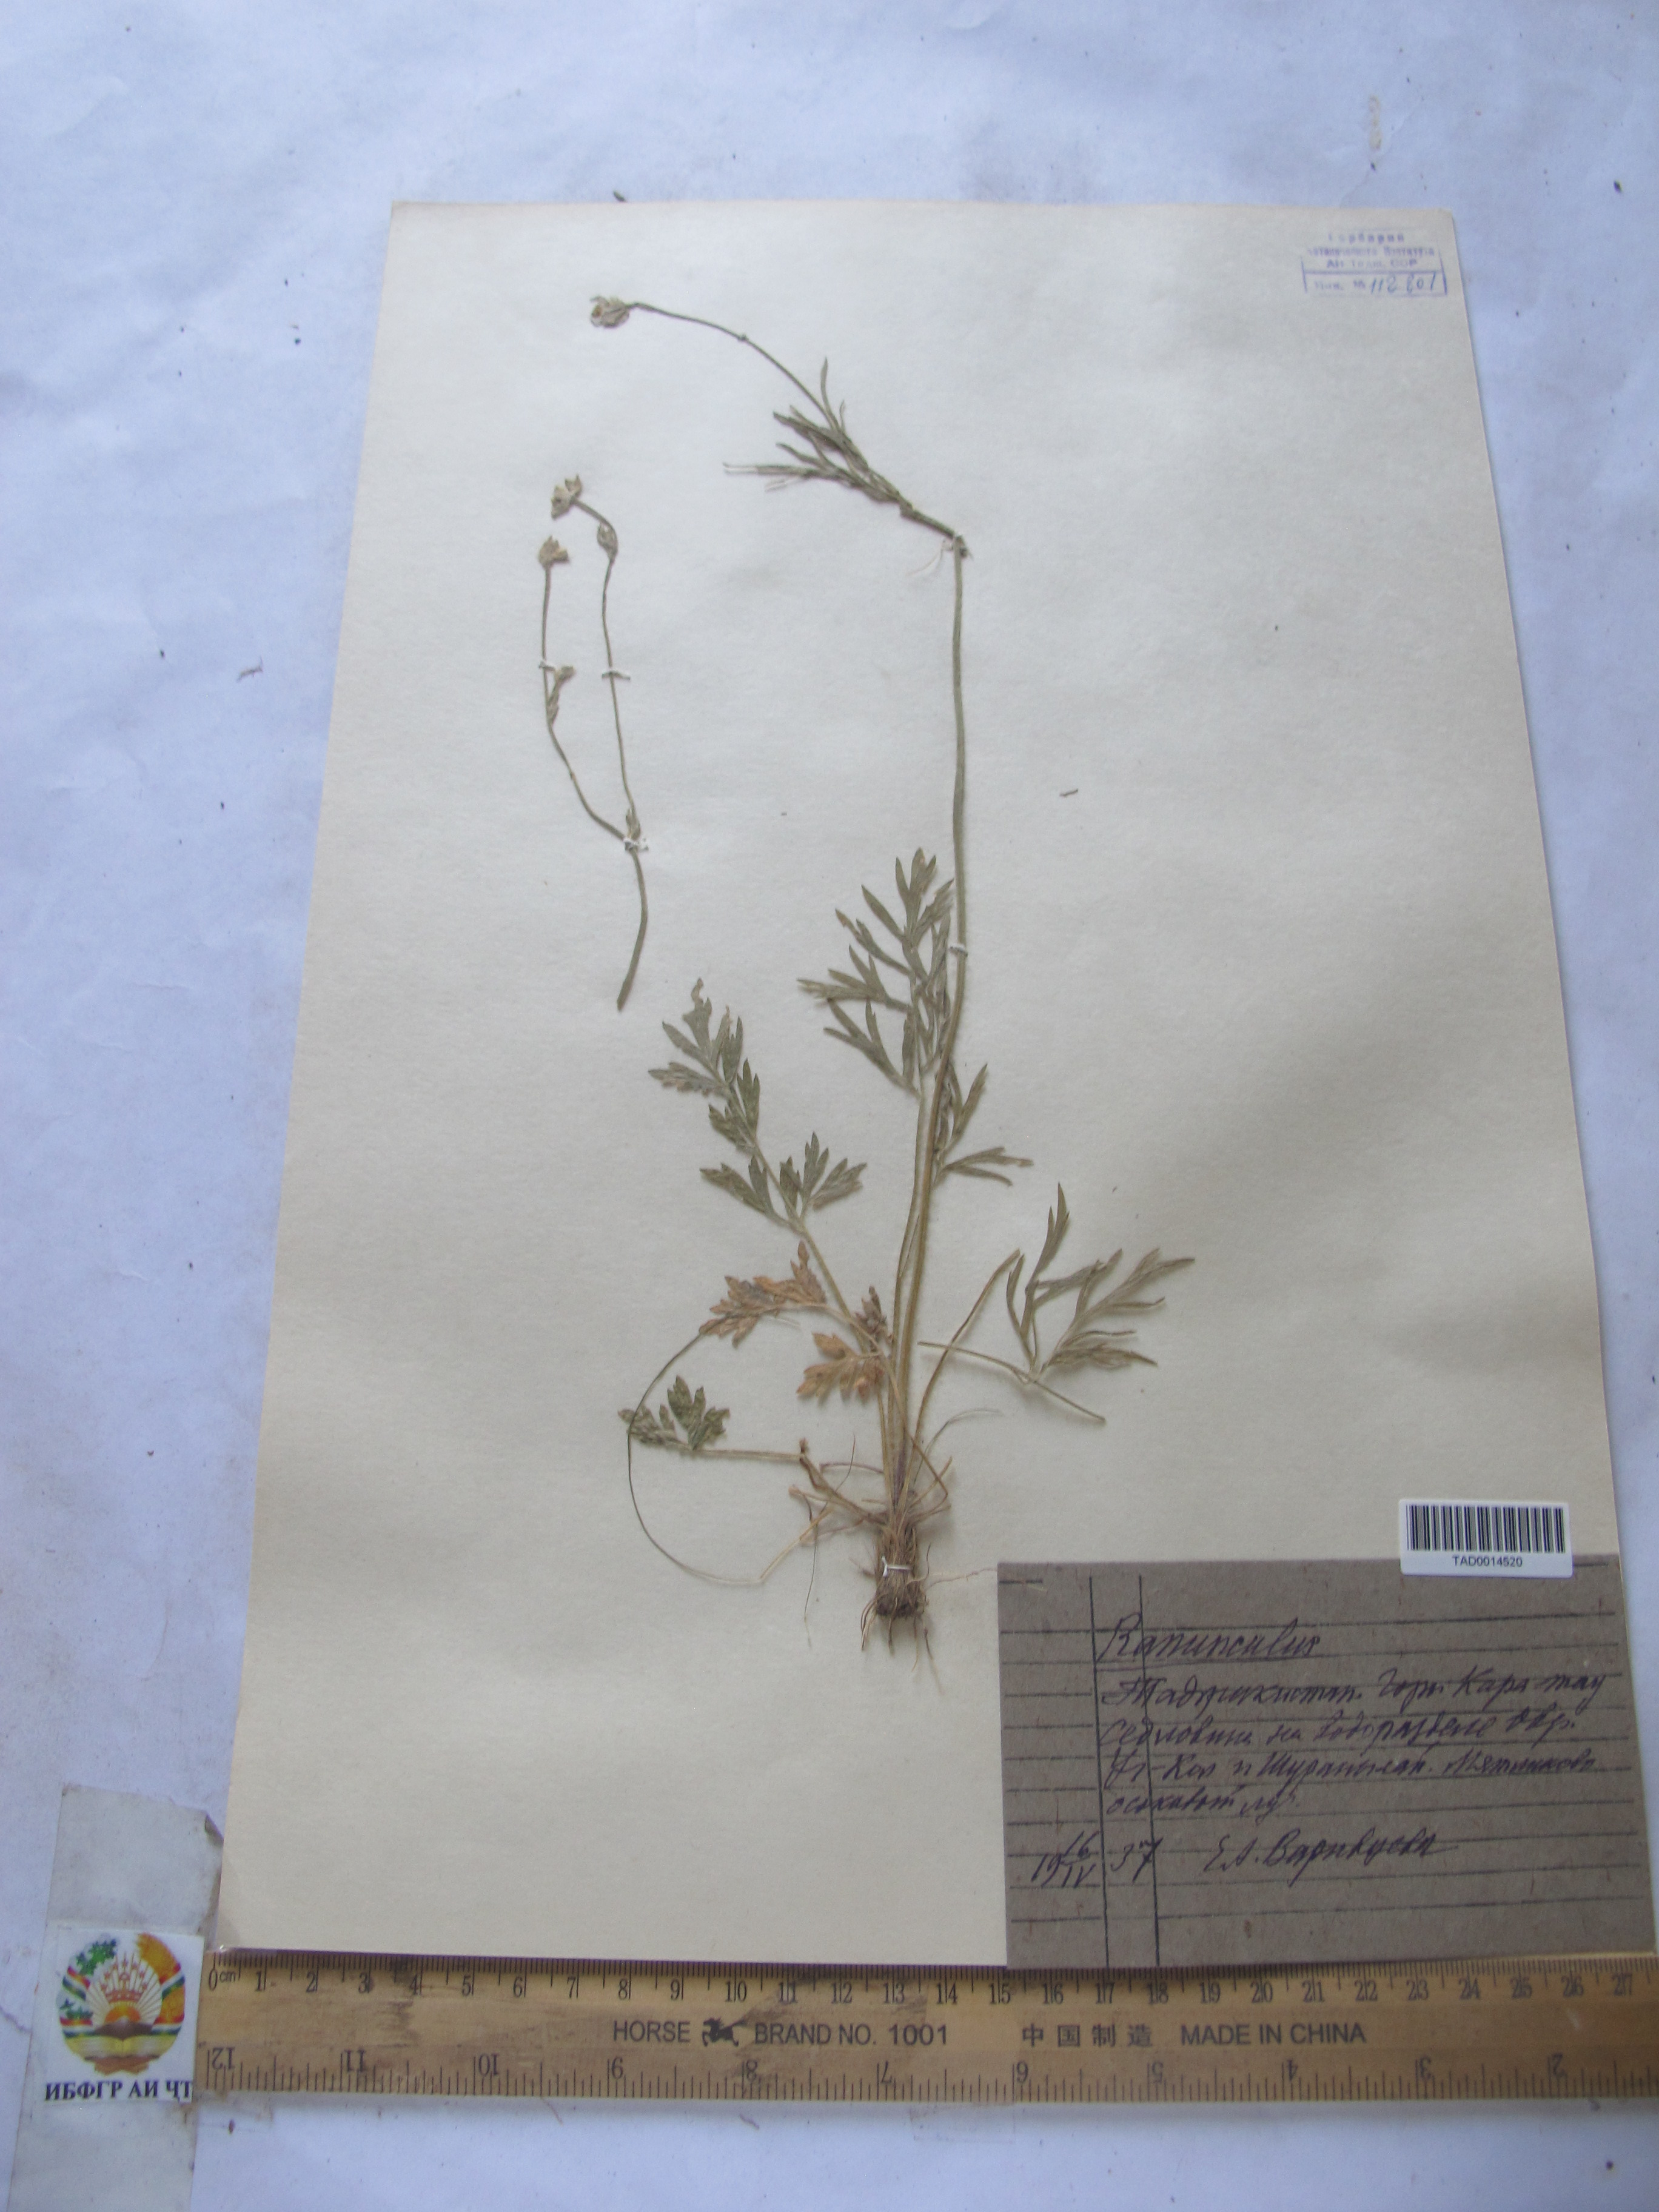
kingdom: Plantae
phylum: Tracheophyta
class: Magnoliopsida
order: Ranunculales
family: Ranunculaceae
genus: Ranunculus
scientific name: Ranunculus leptorrhynchus
